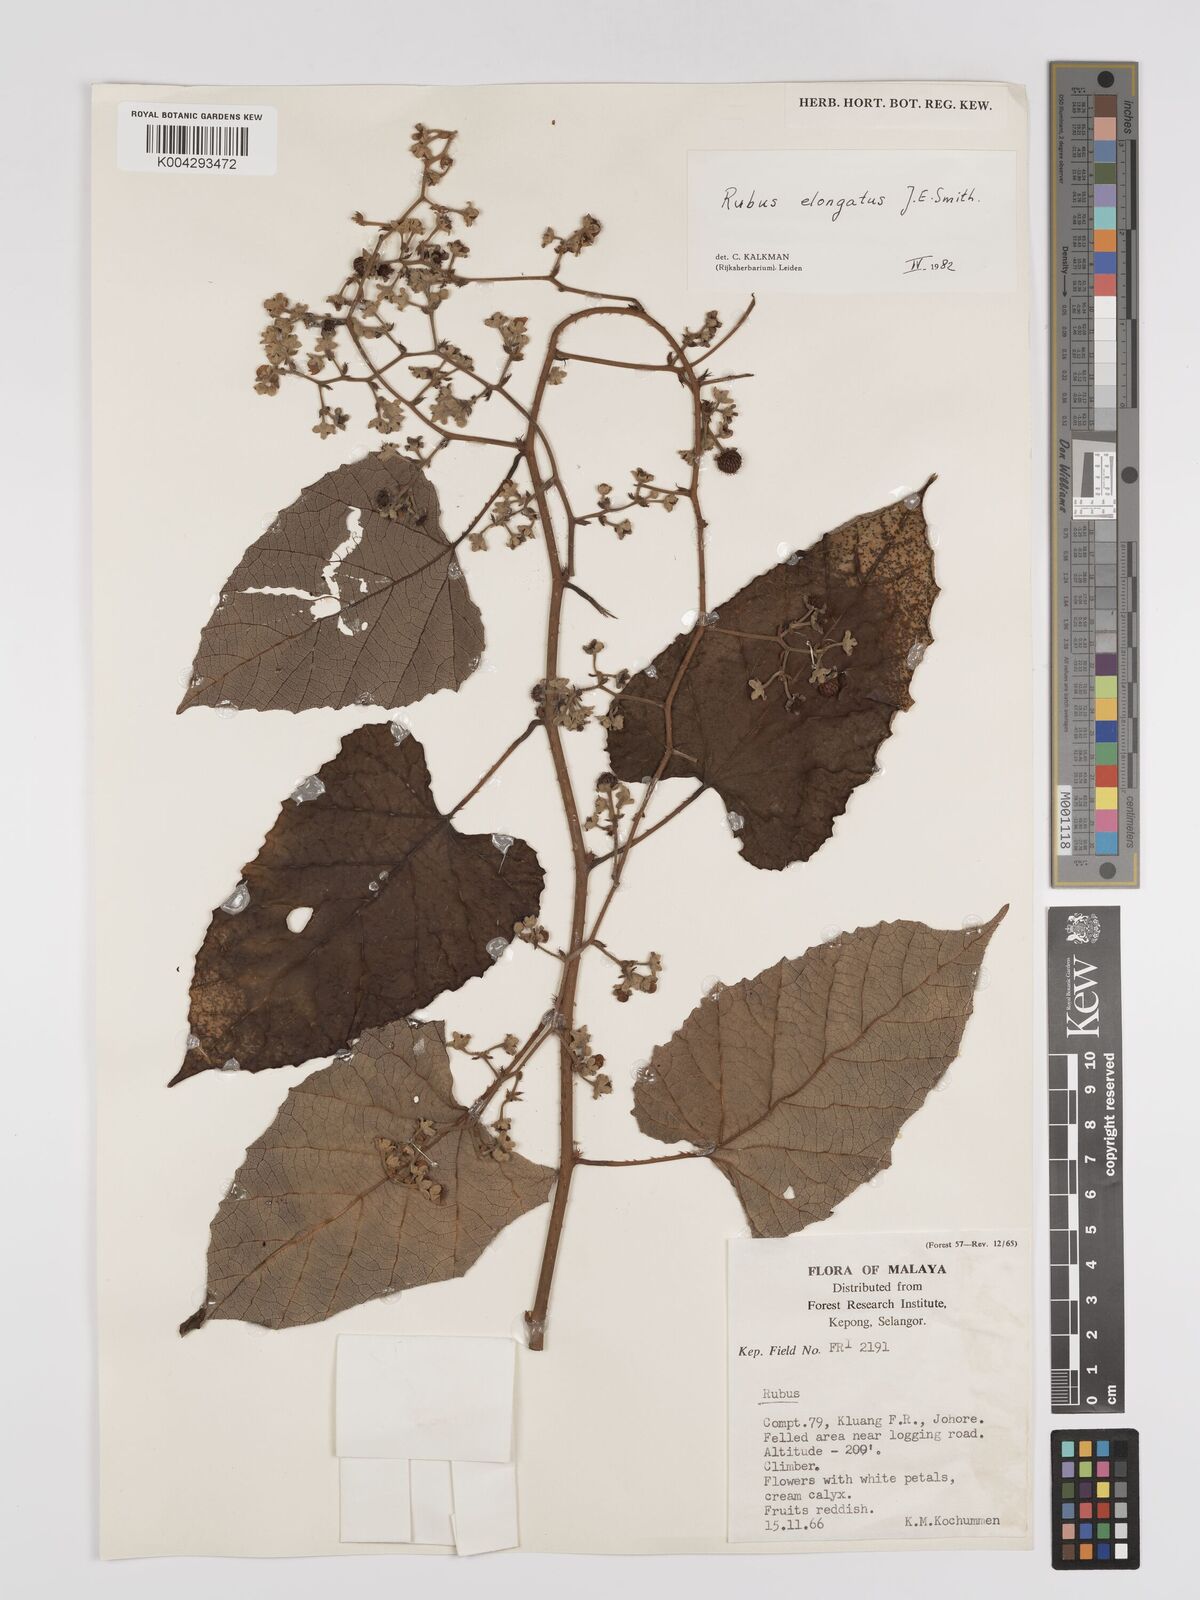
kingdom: Plantae
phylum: Tracheophyta
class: Magnoliopsida
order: Rosales
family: Rosaceae
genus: Rubus
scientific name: Rubus
